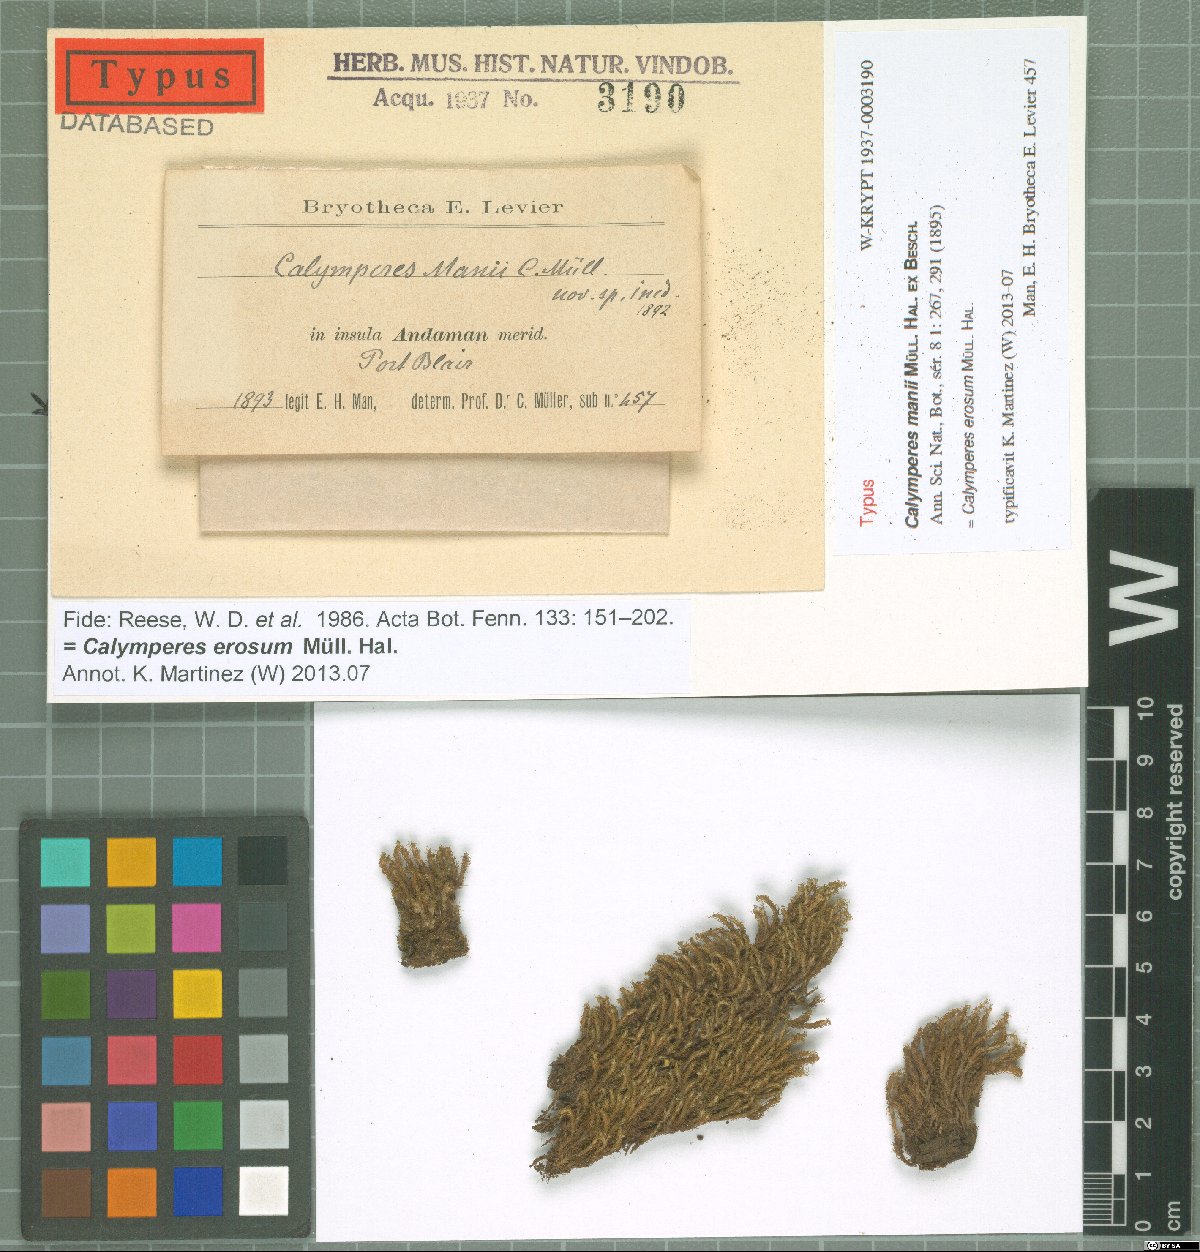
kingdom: Plantae
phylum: Bryophyta
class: Bryopsida
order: Dicranales
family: Calymperaceae
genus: Calymperes
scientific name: Calymperes erosum
